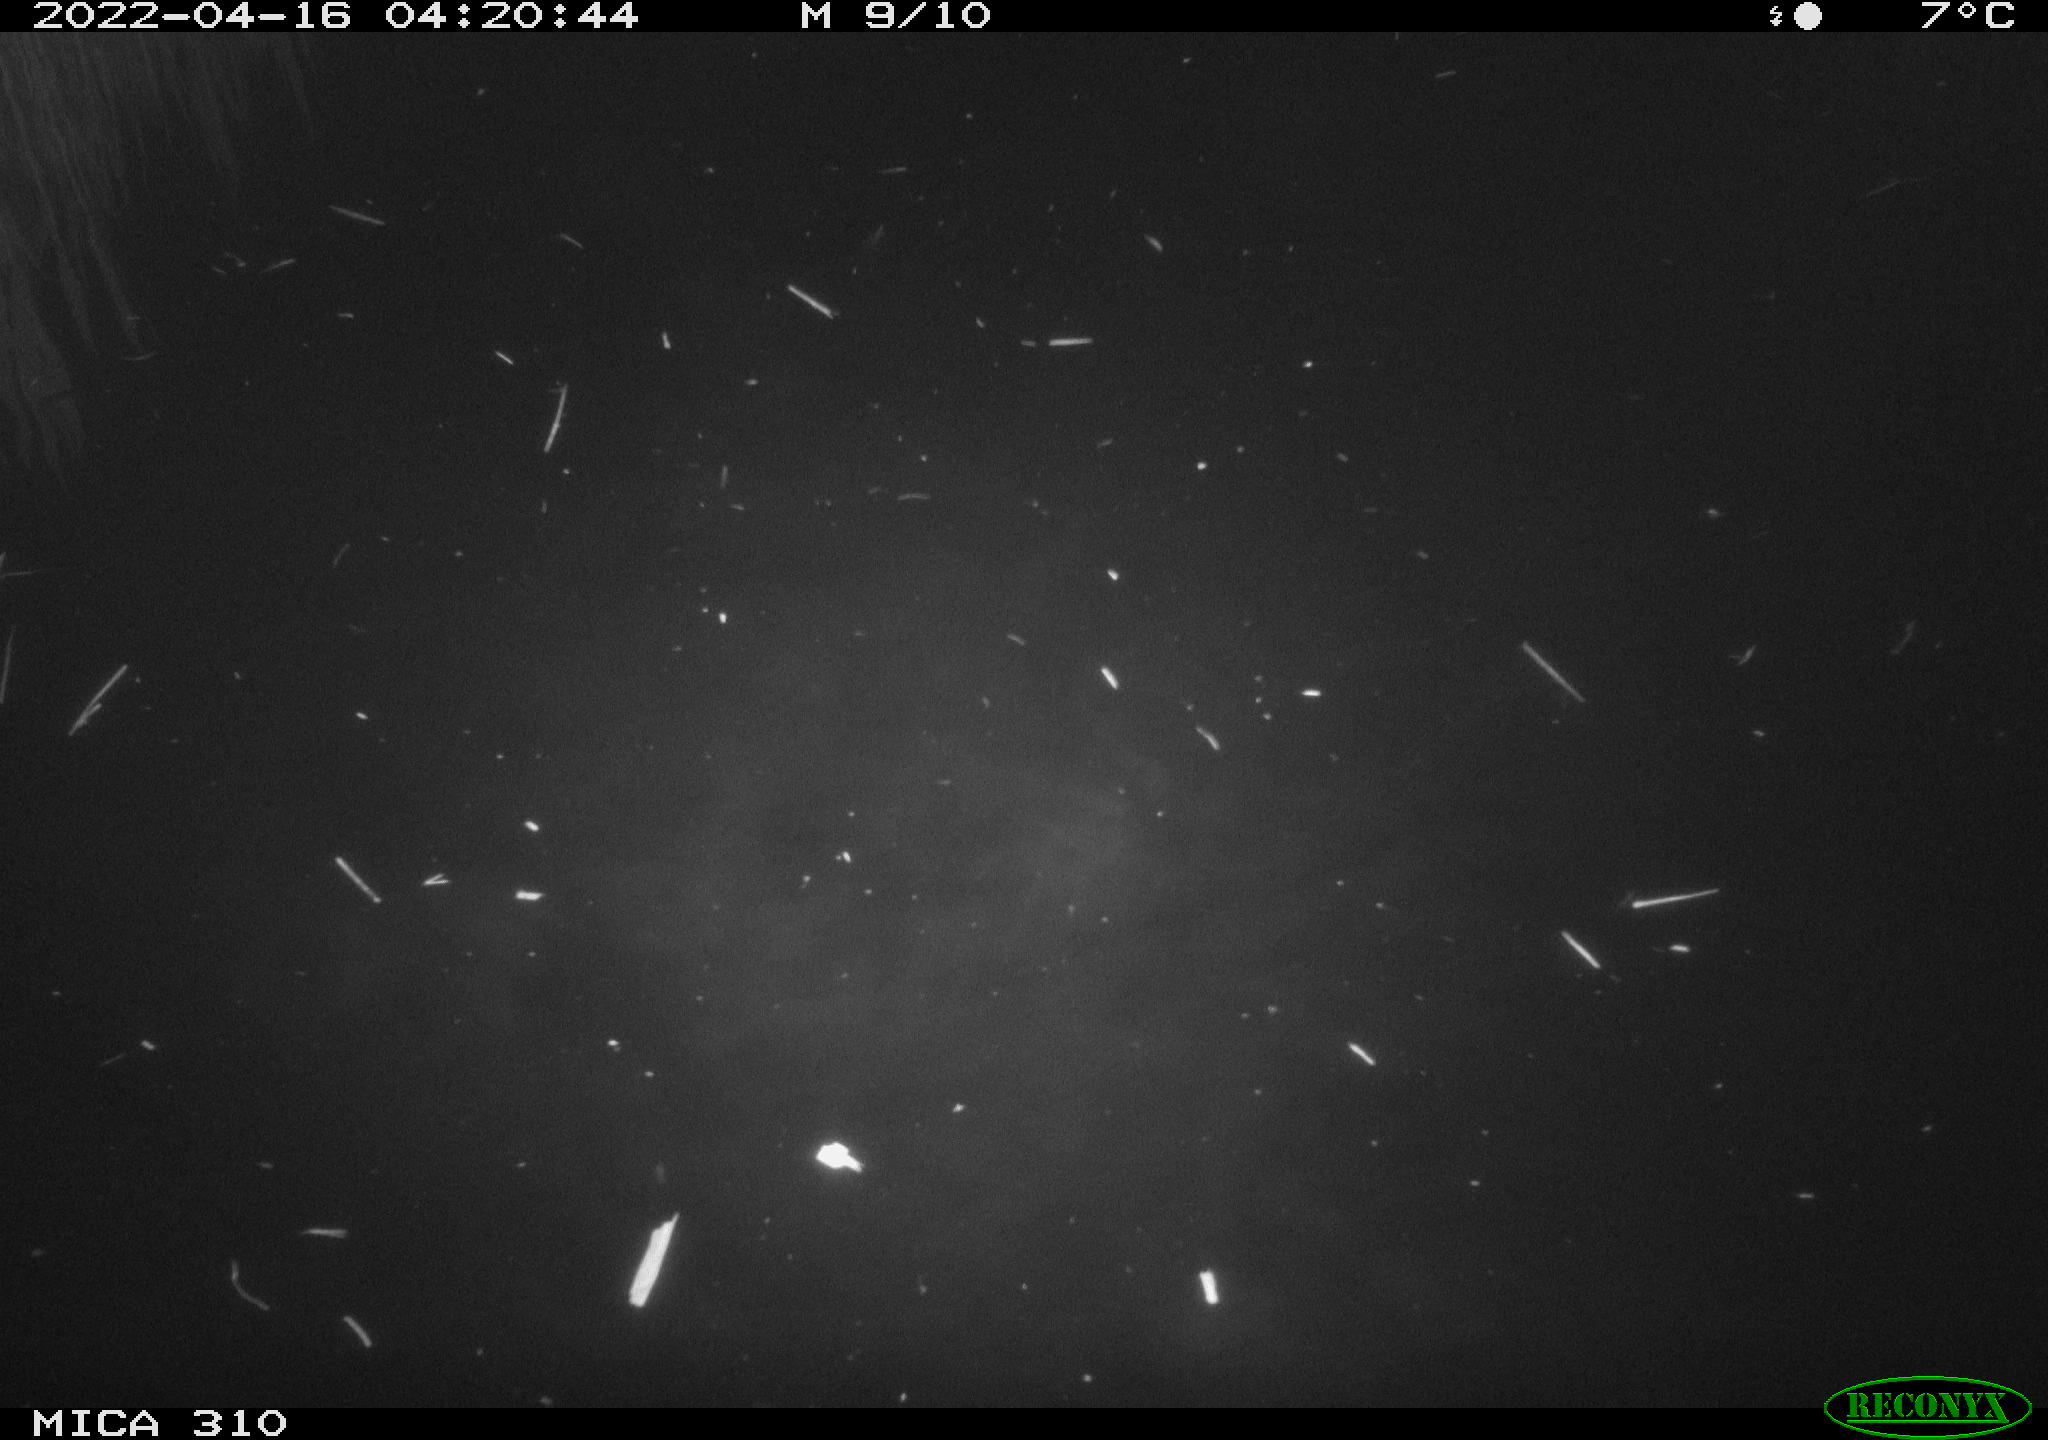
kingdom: Animalia
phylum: Chordata
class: Aves
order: Anseriformes
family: Anatidae
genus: Anas
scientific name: Anas platyrhynchos
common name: Mallard
